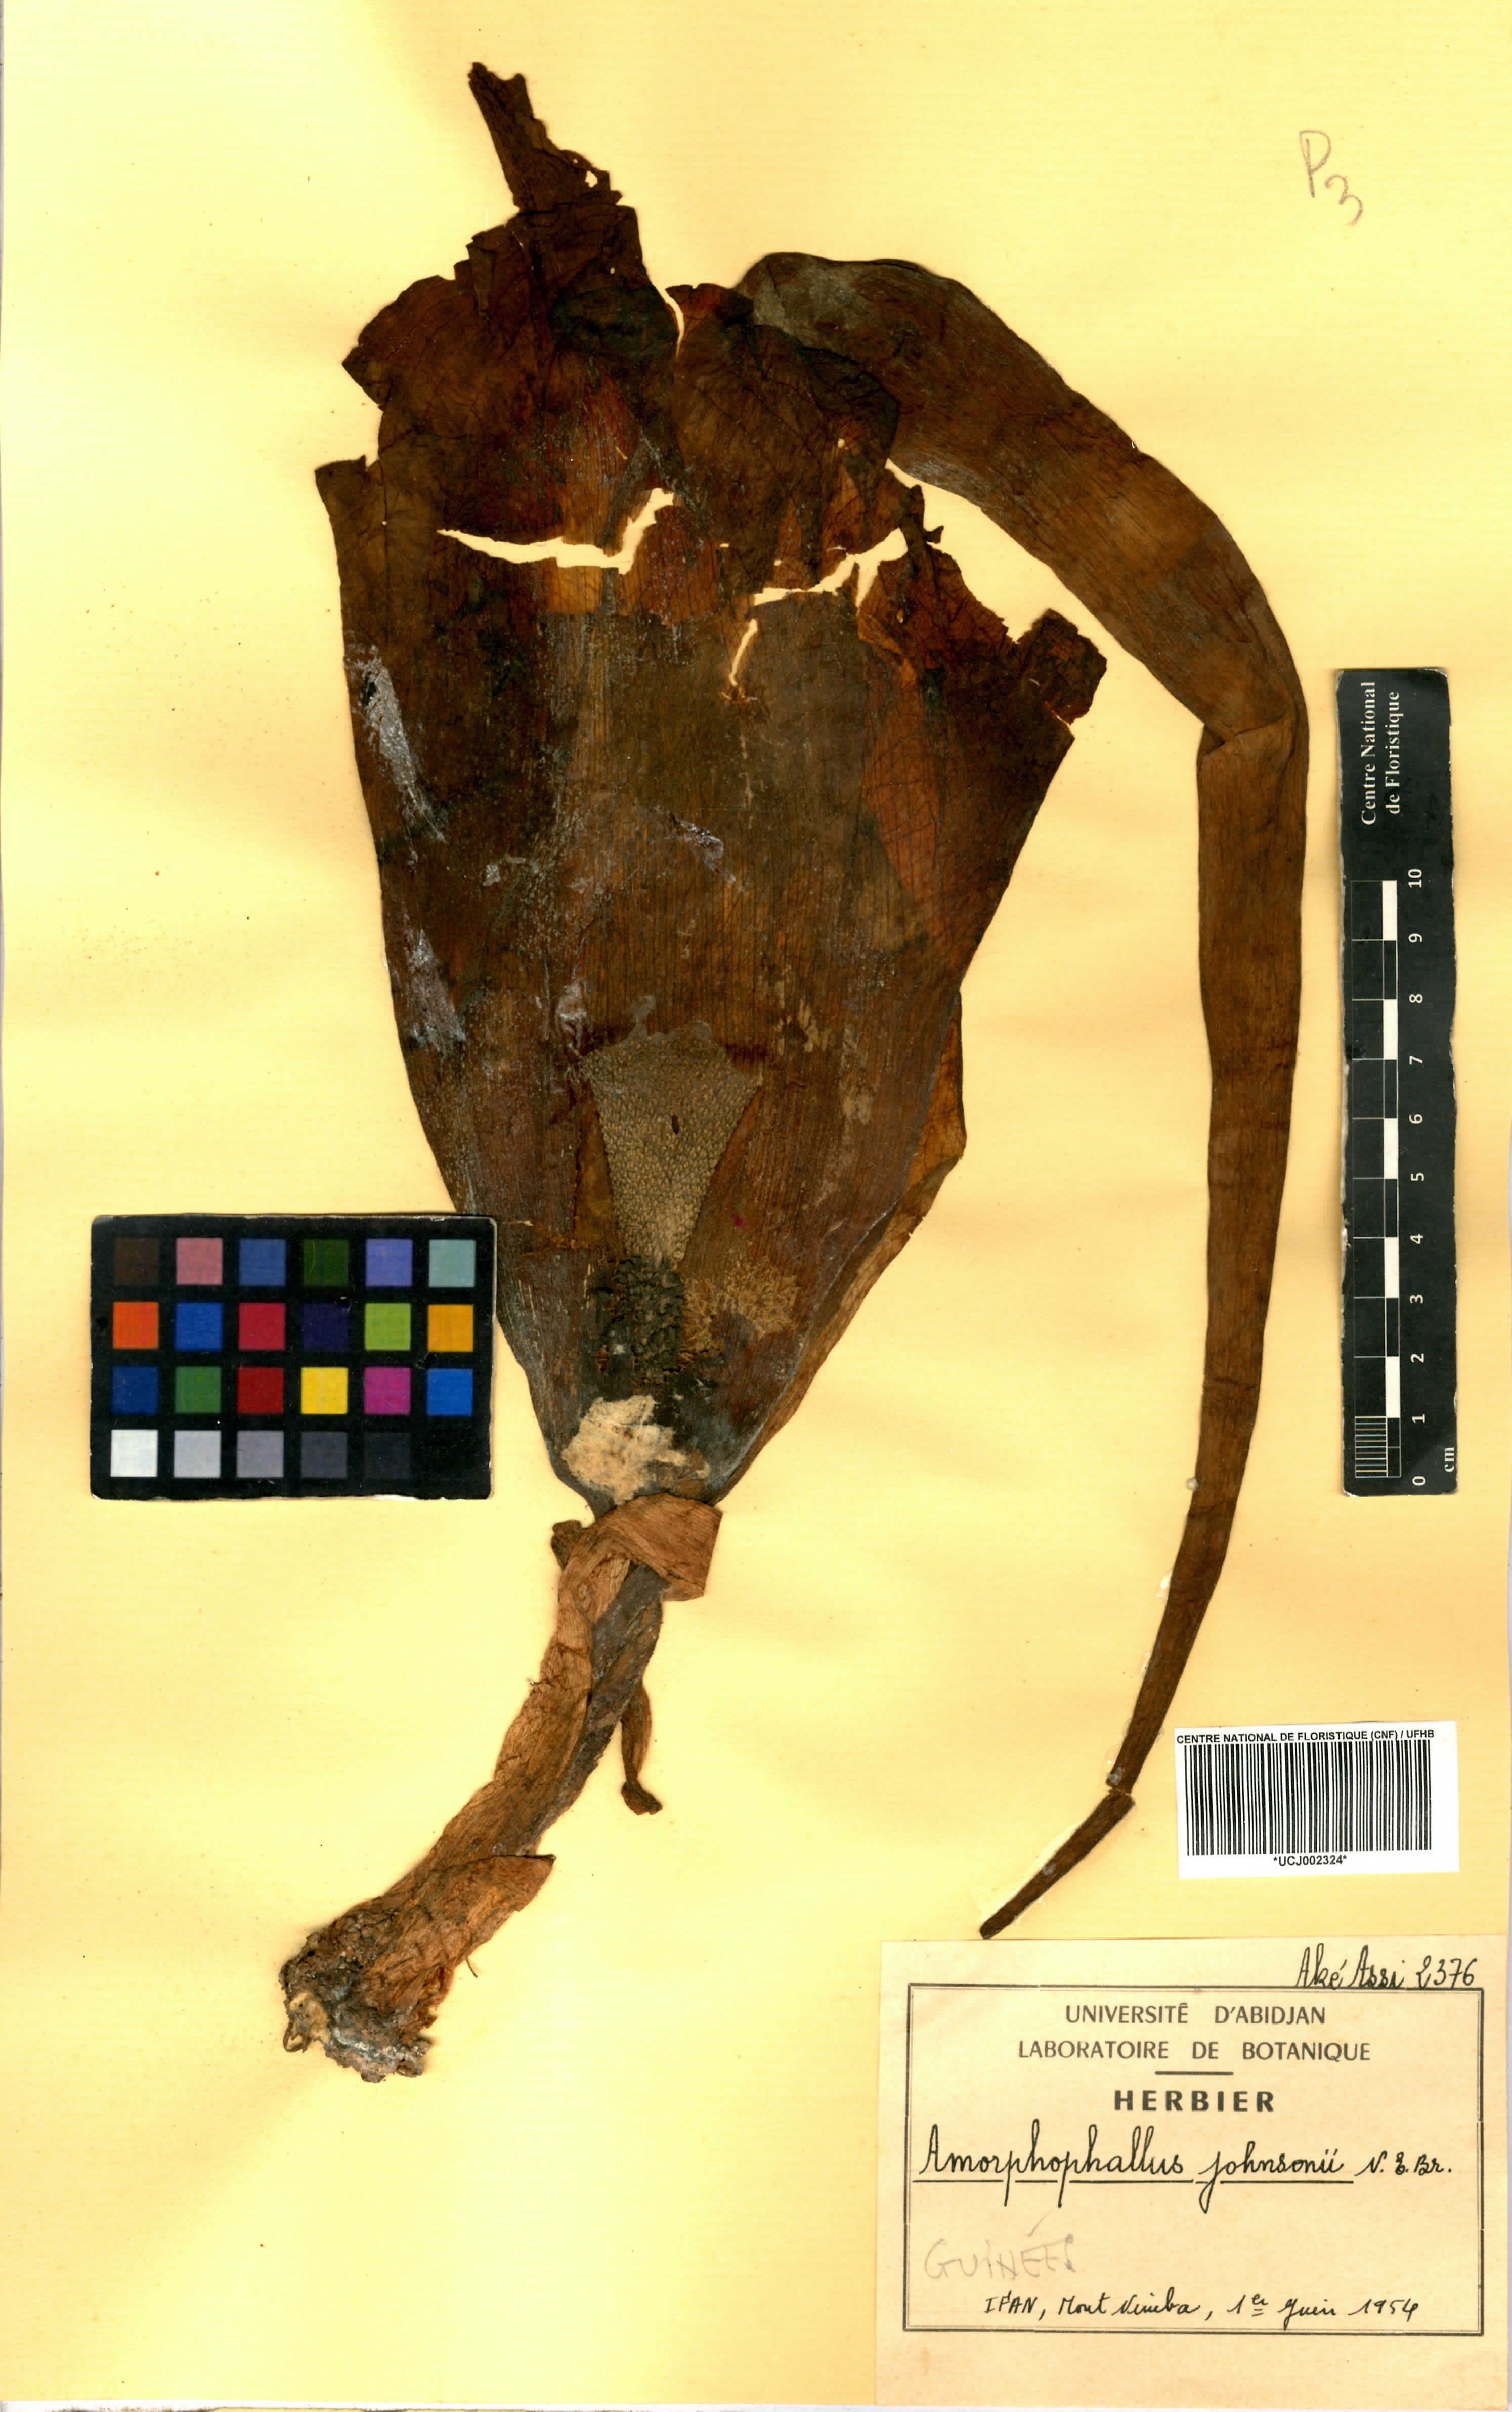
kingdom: Plantae
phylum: Tracheophyta
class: Liliopsida
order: Alismatales
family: Araceae
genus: Amorphophallus
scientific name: Amorphophallus johnsonii
